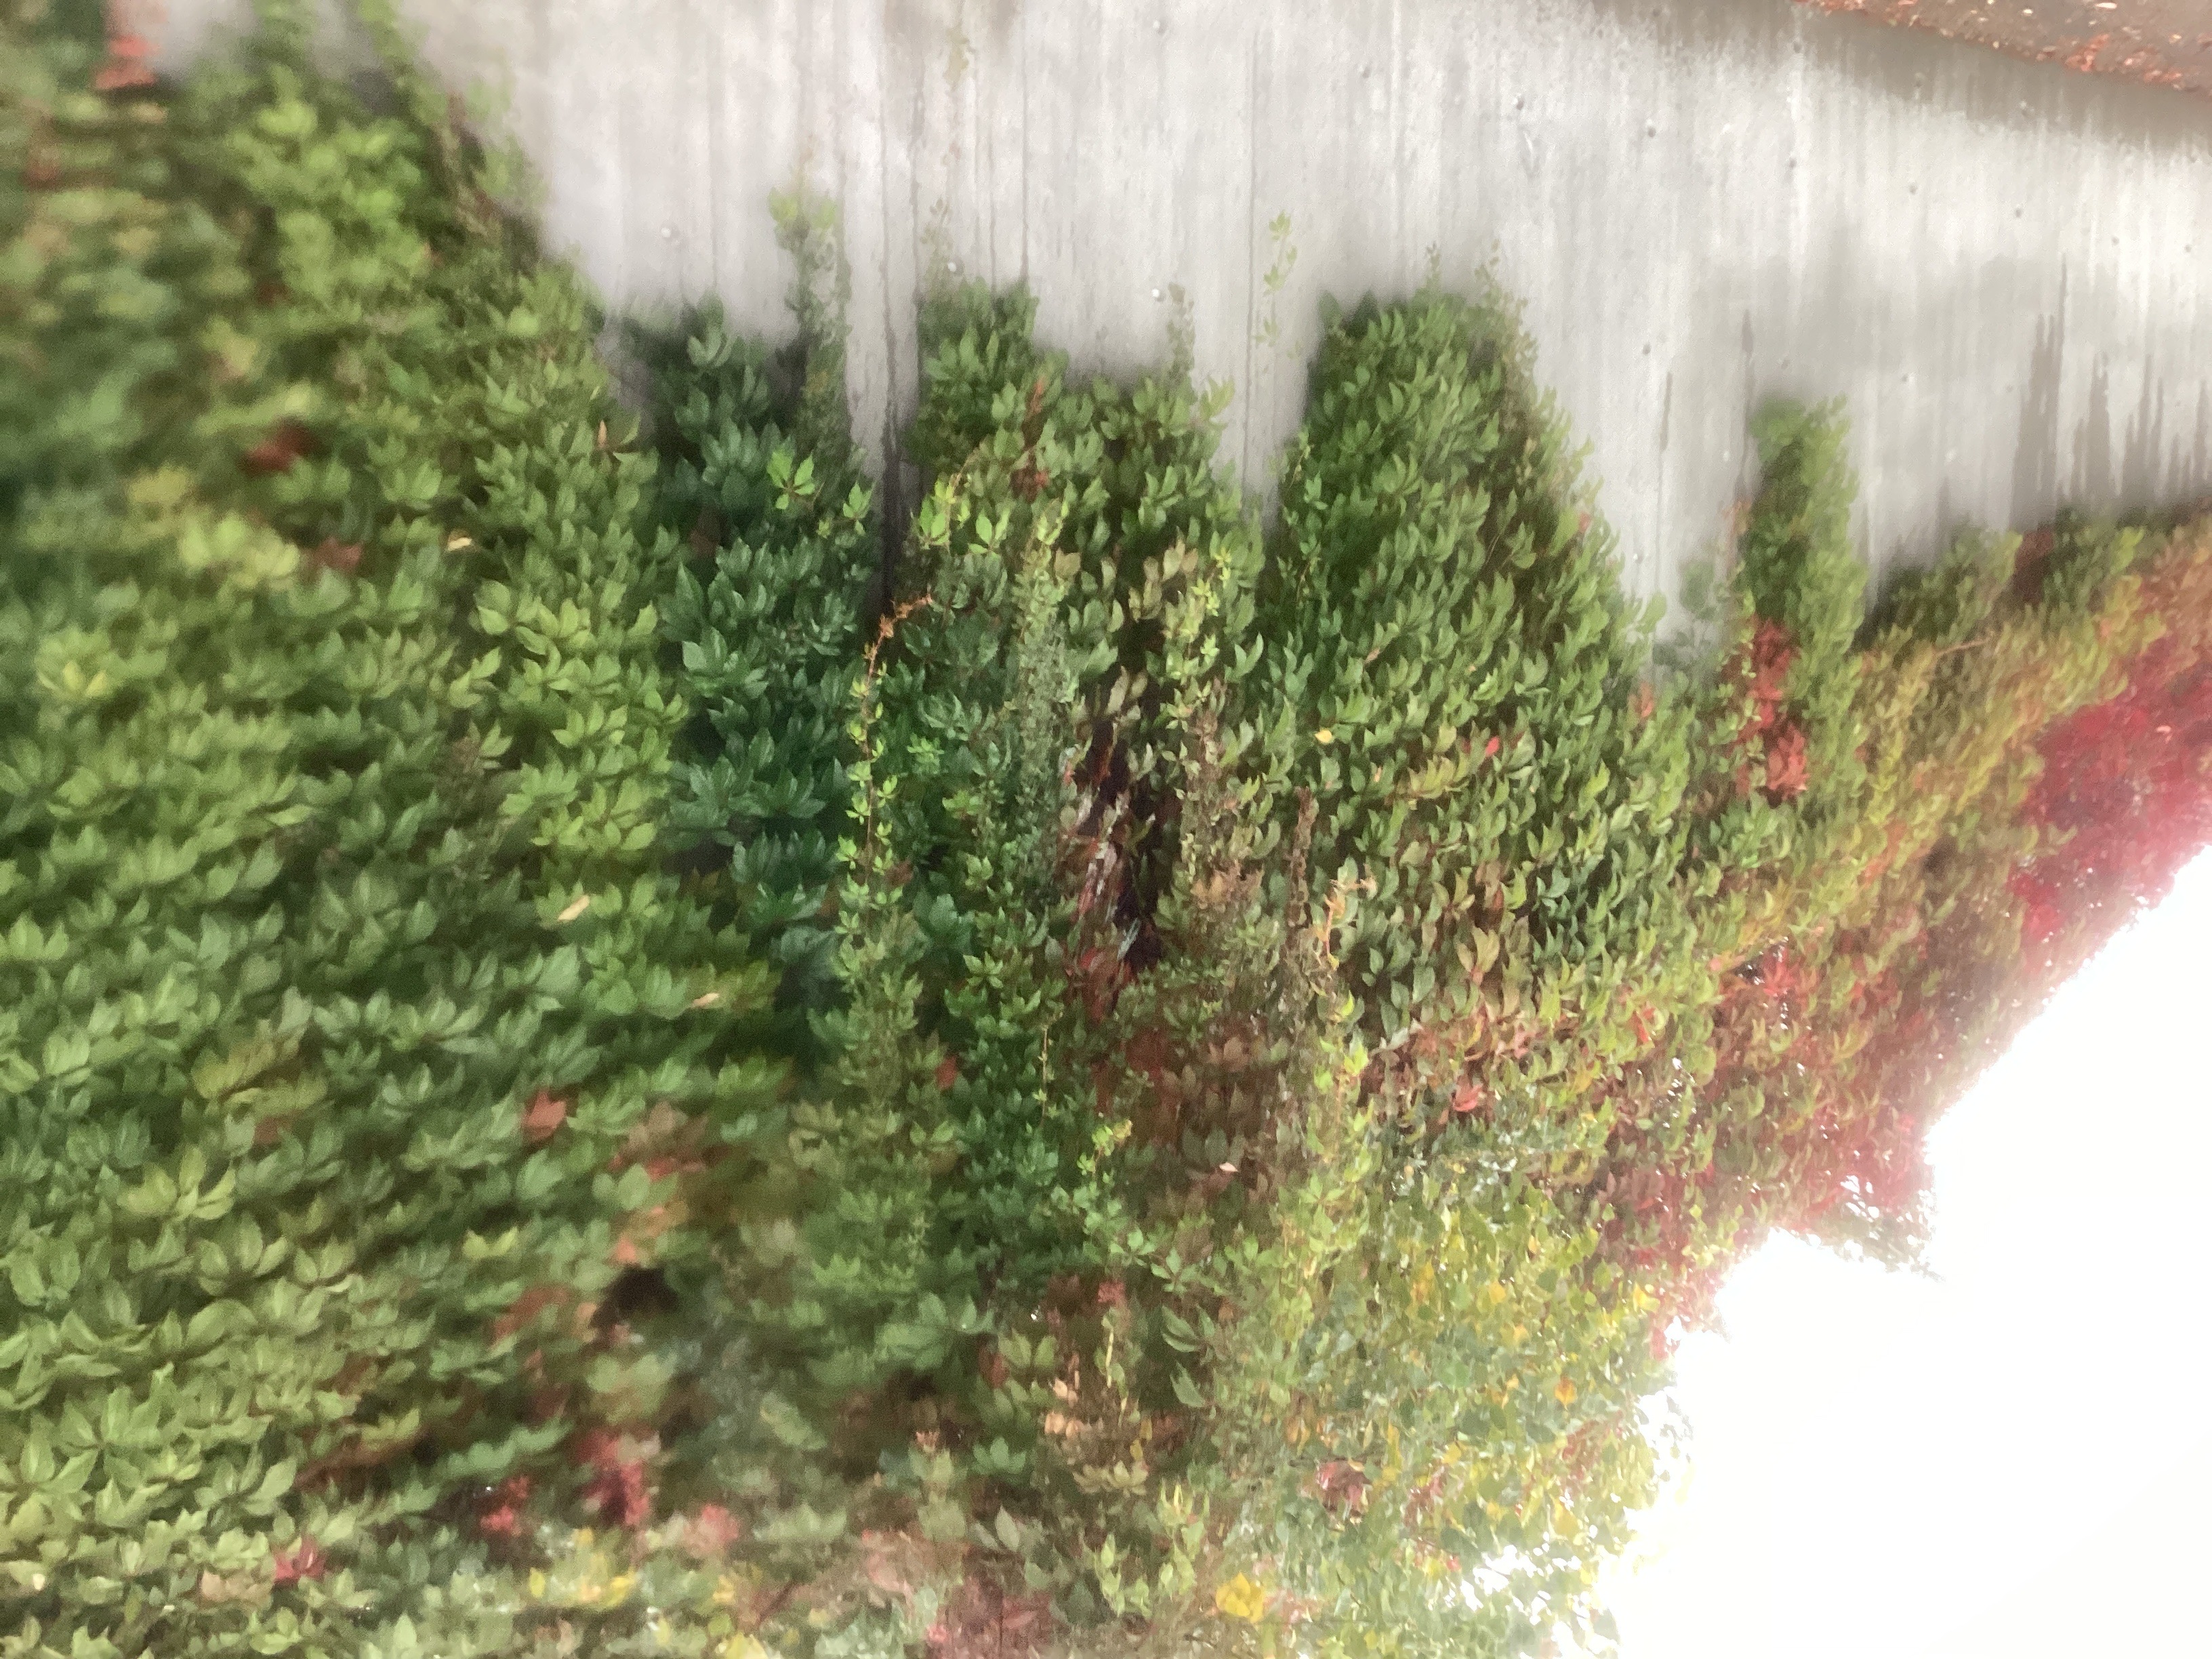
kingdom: Plantae
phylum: Tracheophyta
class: Magnoliopsida
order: Vitales
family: Vitaceae
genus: Parthenocissus
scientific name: Parthenocissus quinquefolia
